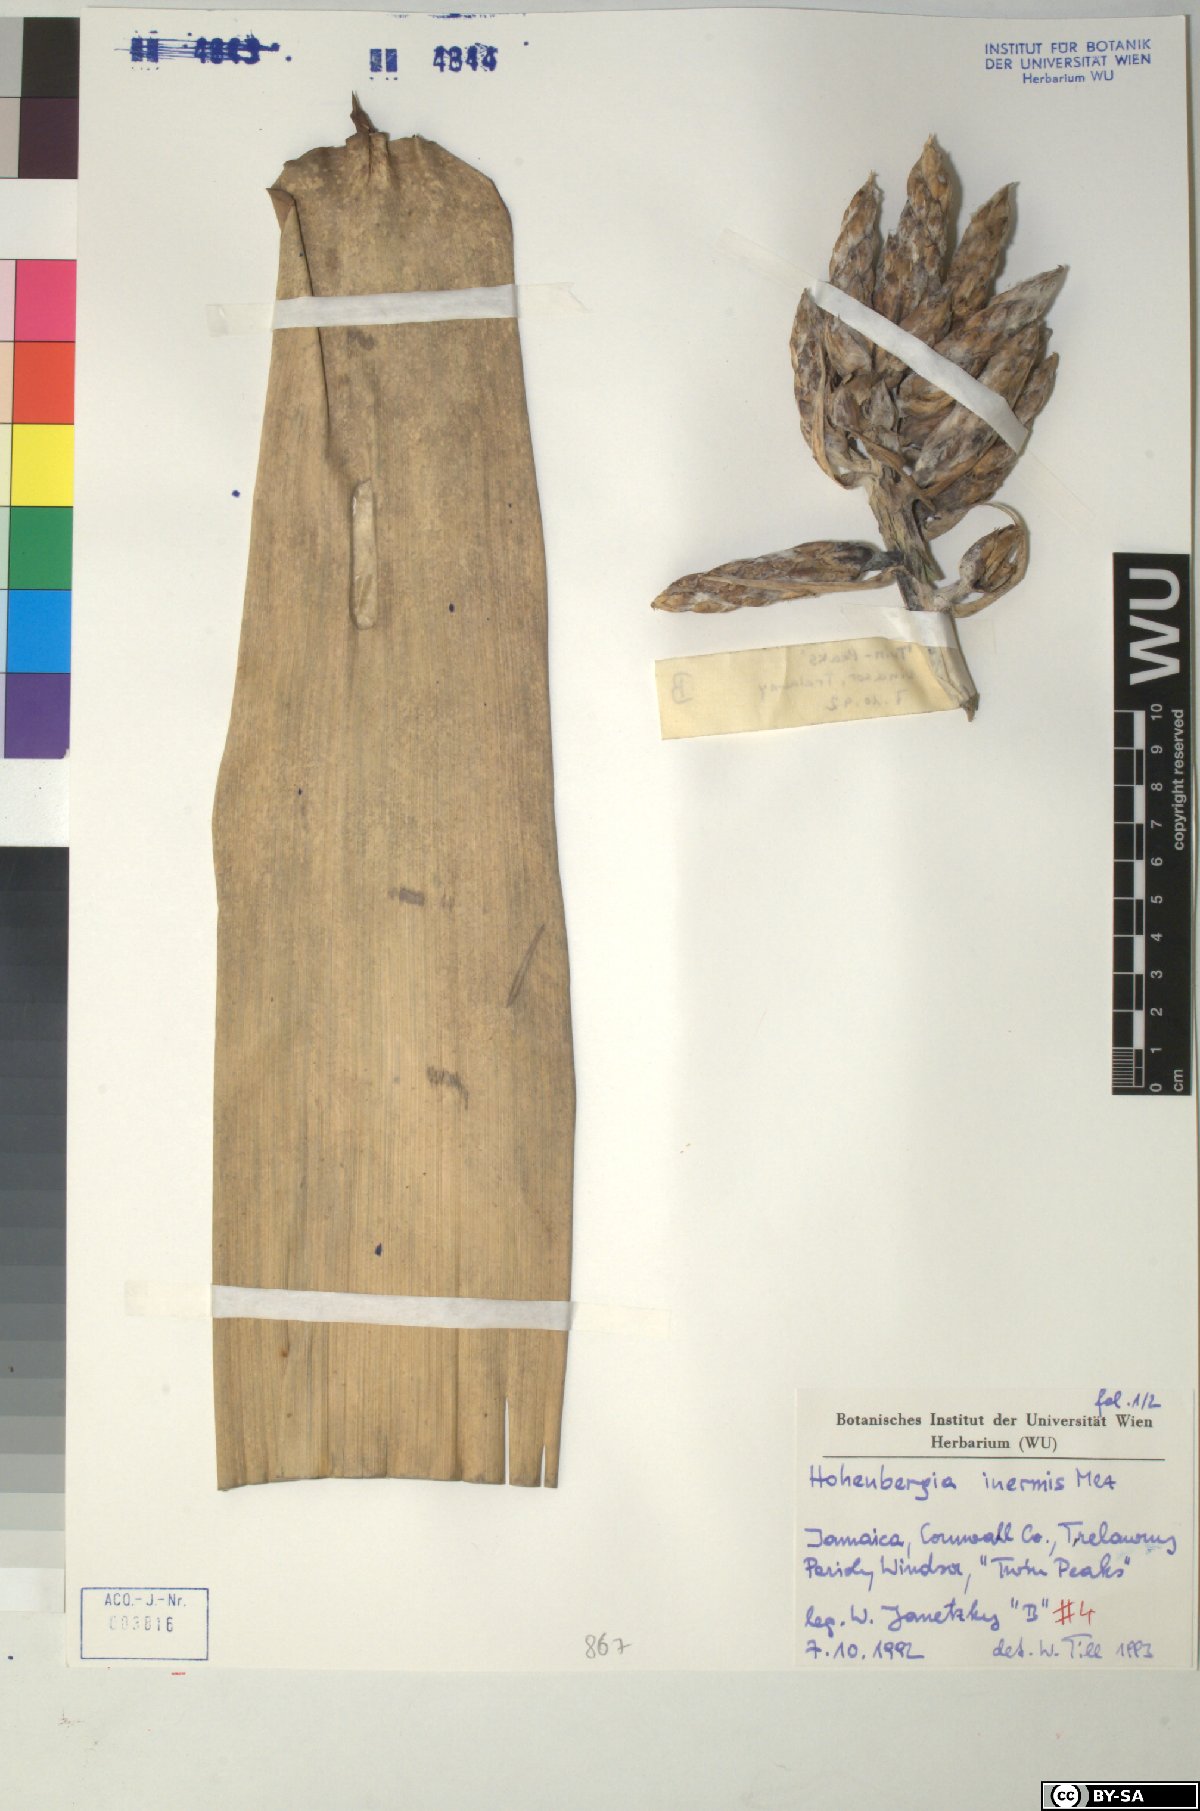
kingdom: Plantae
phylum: Tracheophyta
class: Liliopsida
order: Poales
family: Bromeliaceae
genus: Wittmackia
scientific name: Wittmackia inermis
